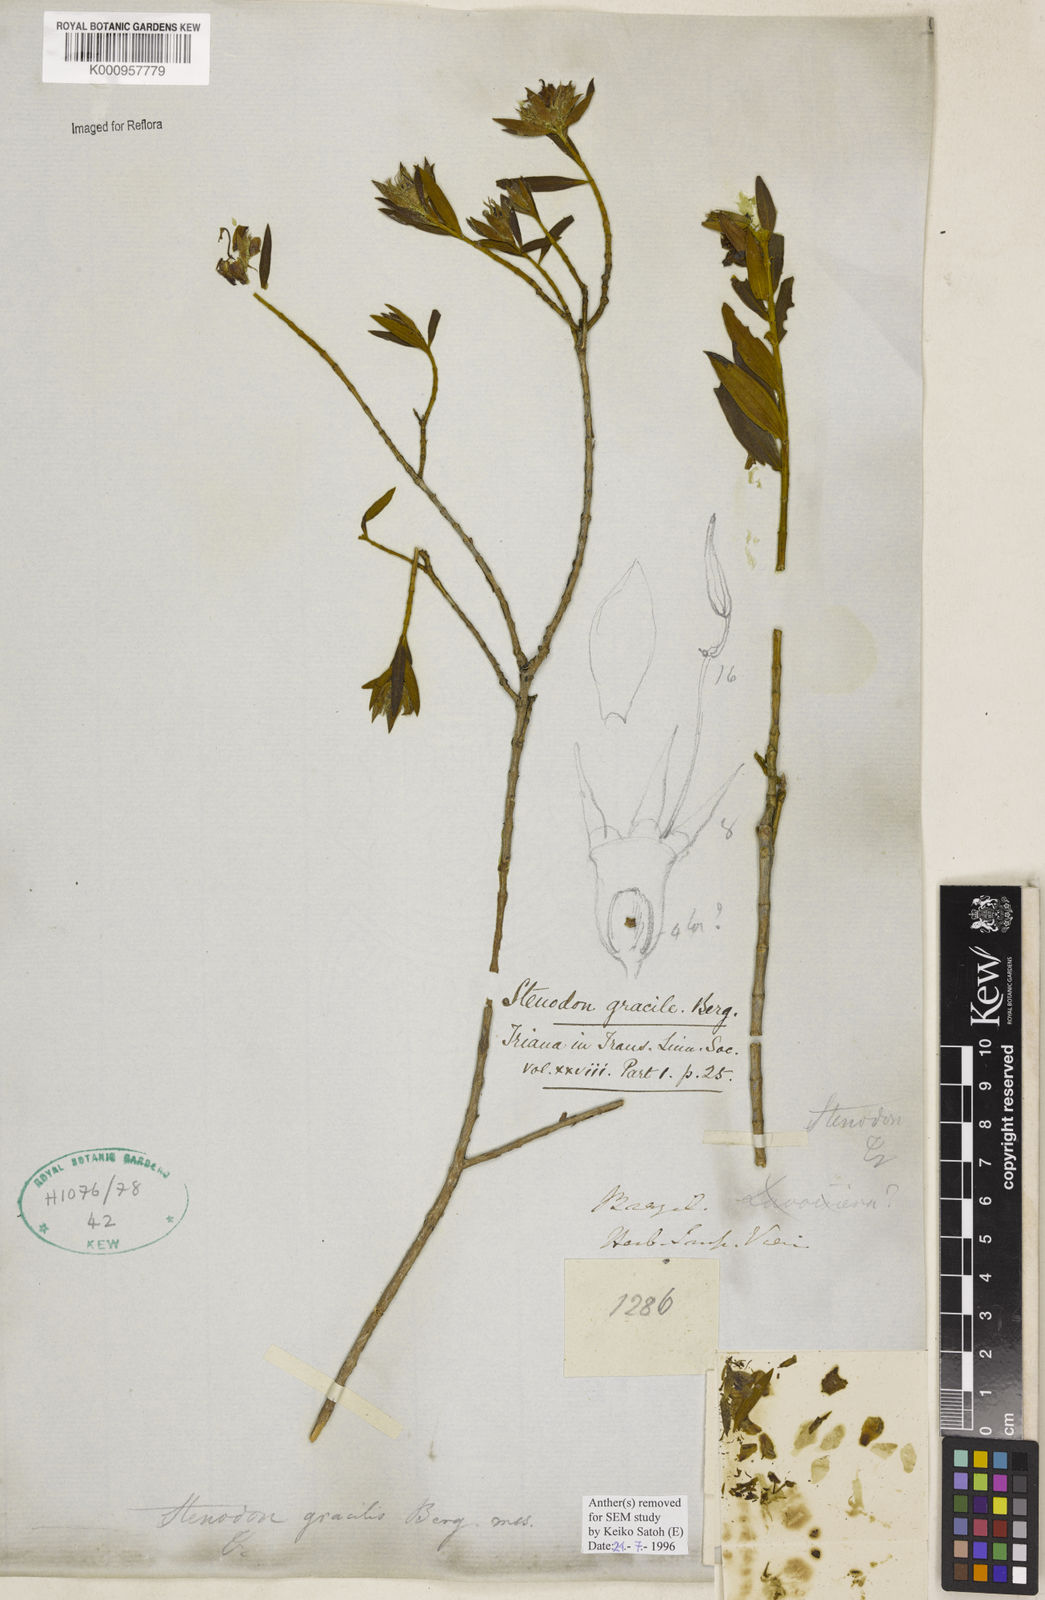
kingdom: Plantae
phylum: Tracheophyta
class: Magnoliopsida
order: Myrtales
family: Melastomataceae
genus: Microlicia
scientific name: Microlicia neogracilis
